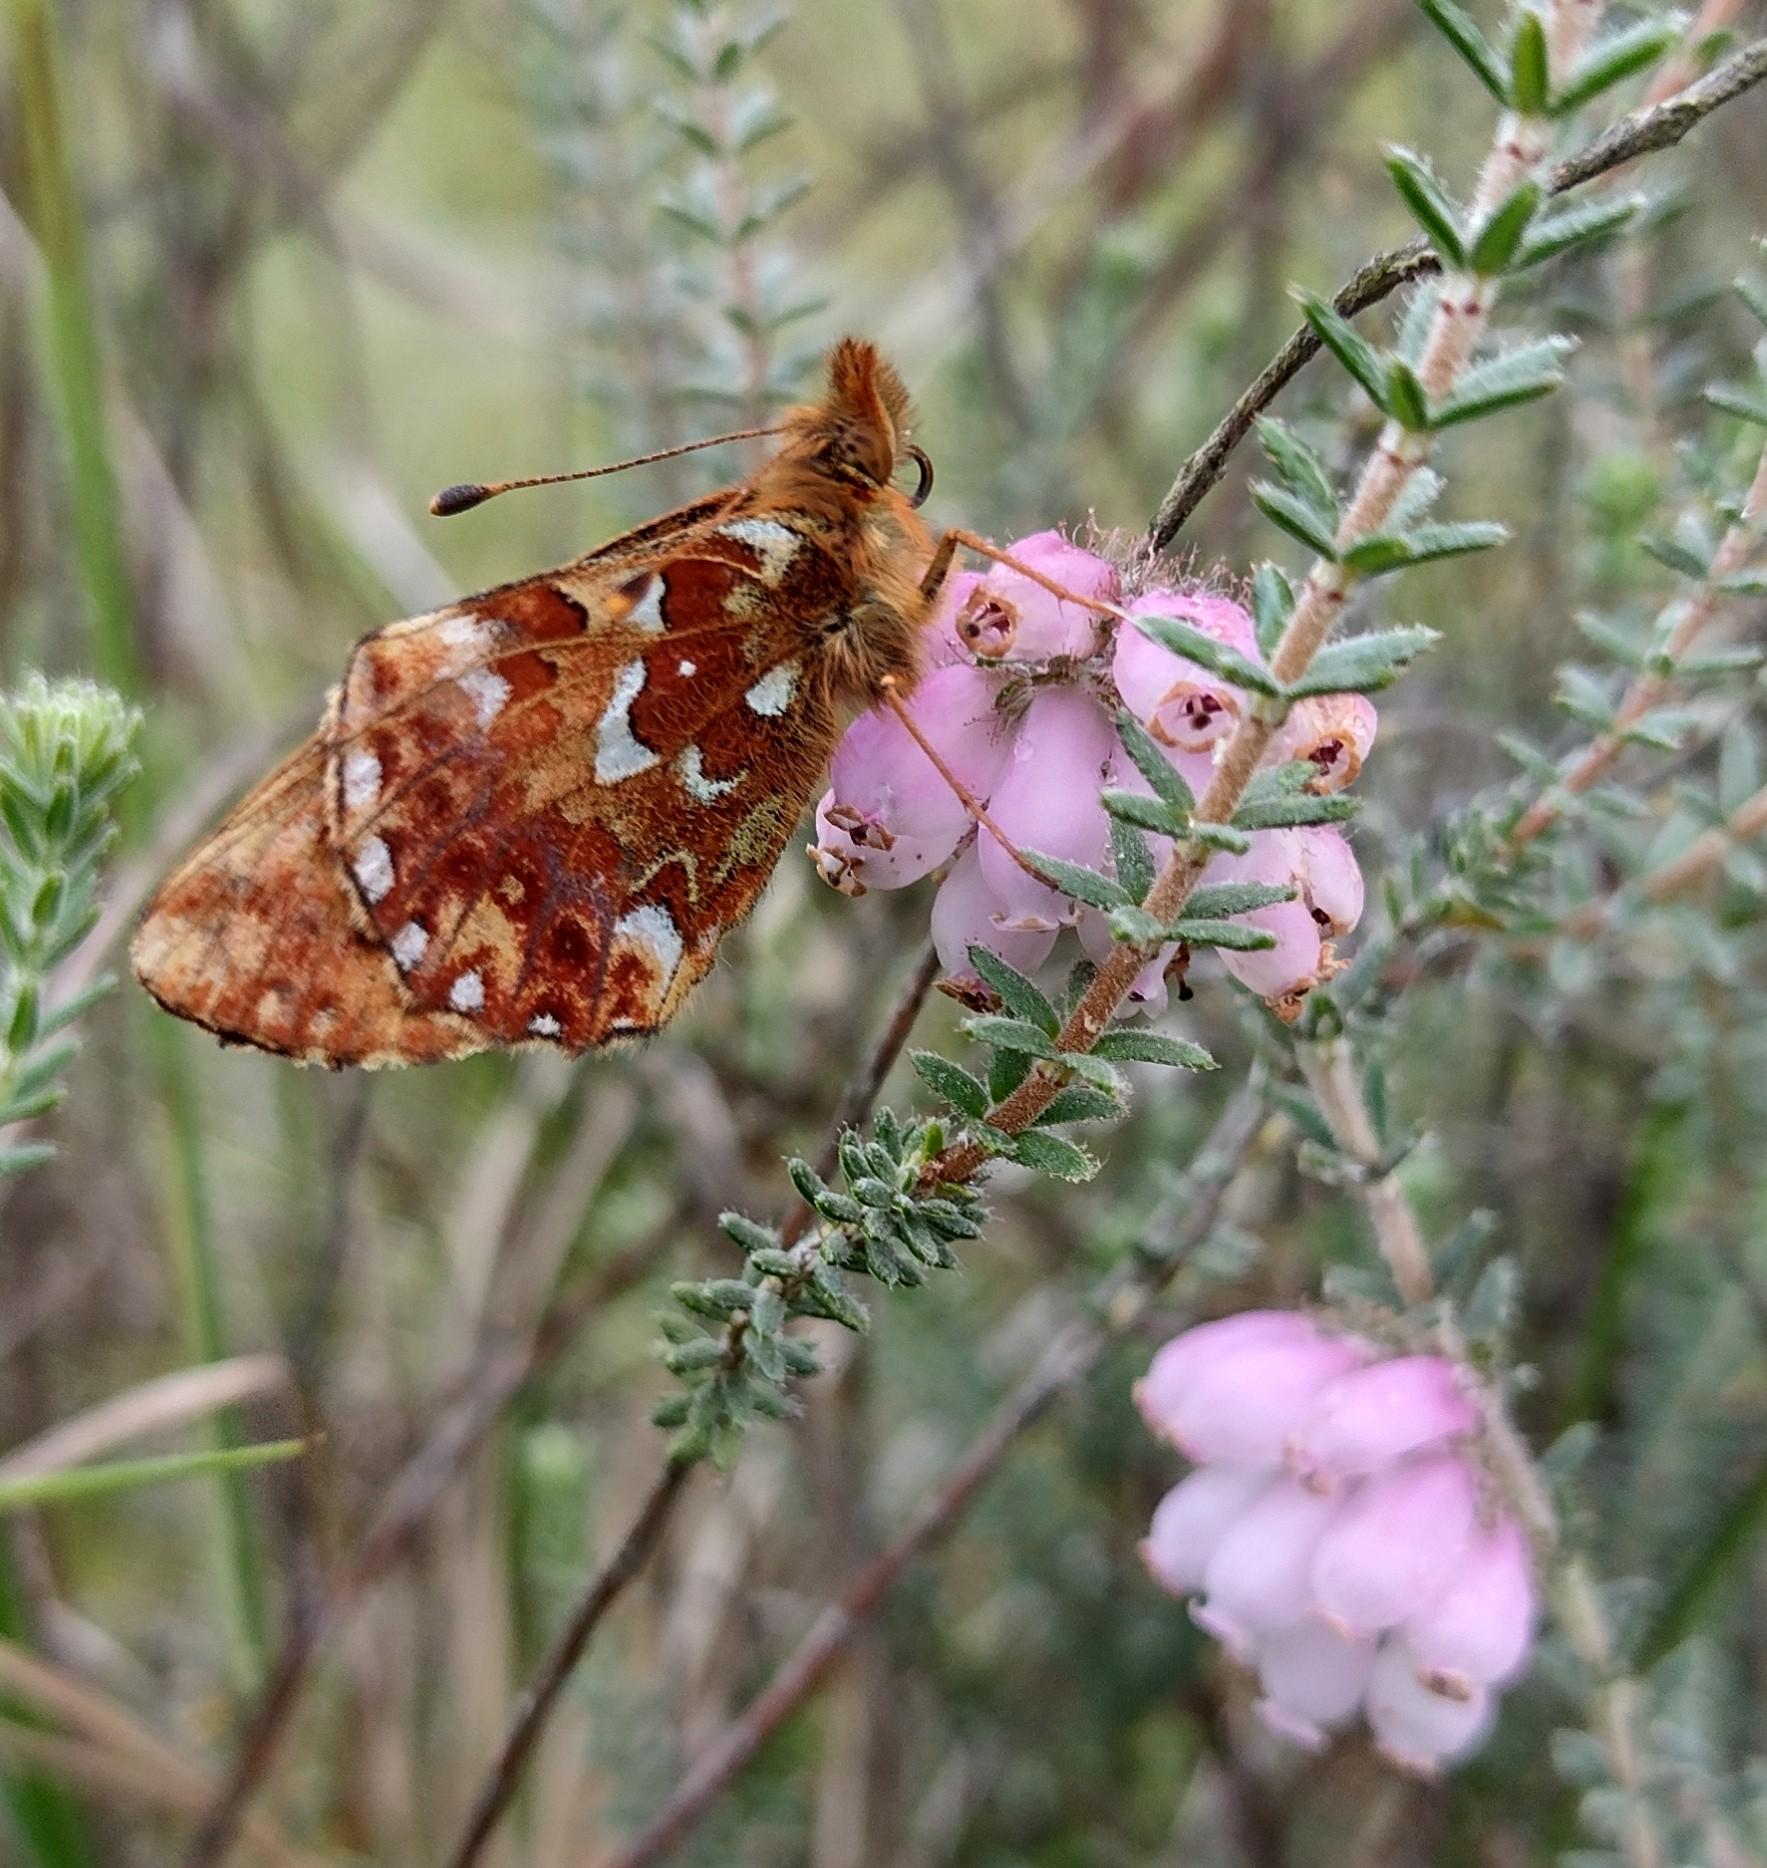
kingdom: Animalia
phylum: Arthropoda
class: Insecta
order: Lepidoptera
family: Nymphalidae
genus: Boloria
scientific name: Boloria aquilonaris
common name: Moseperlemorsommerfugl
